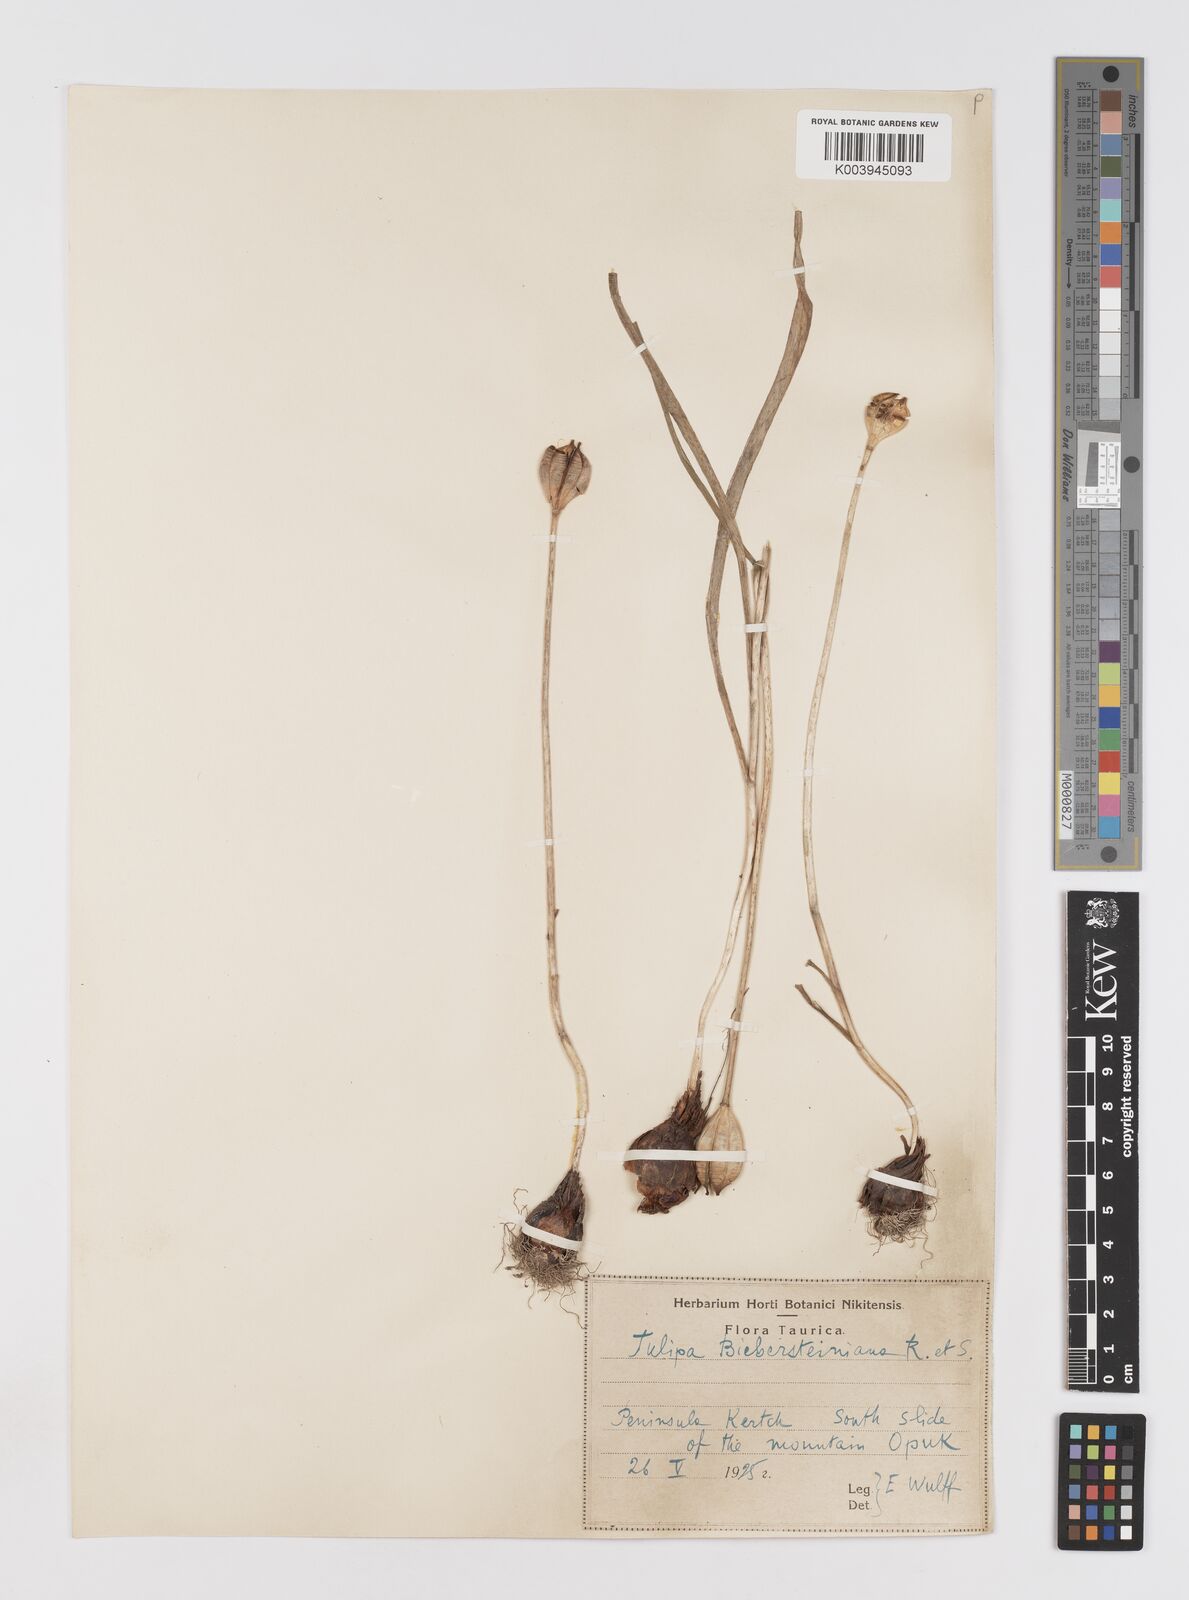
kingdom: Plantae
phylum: Tracheophyta
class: Liliopsida
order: Liliales
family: Liliaceae
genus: Tulipa
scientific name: Tulipa sylvestris
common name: Wild tulip
